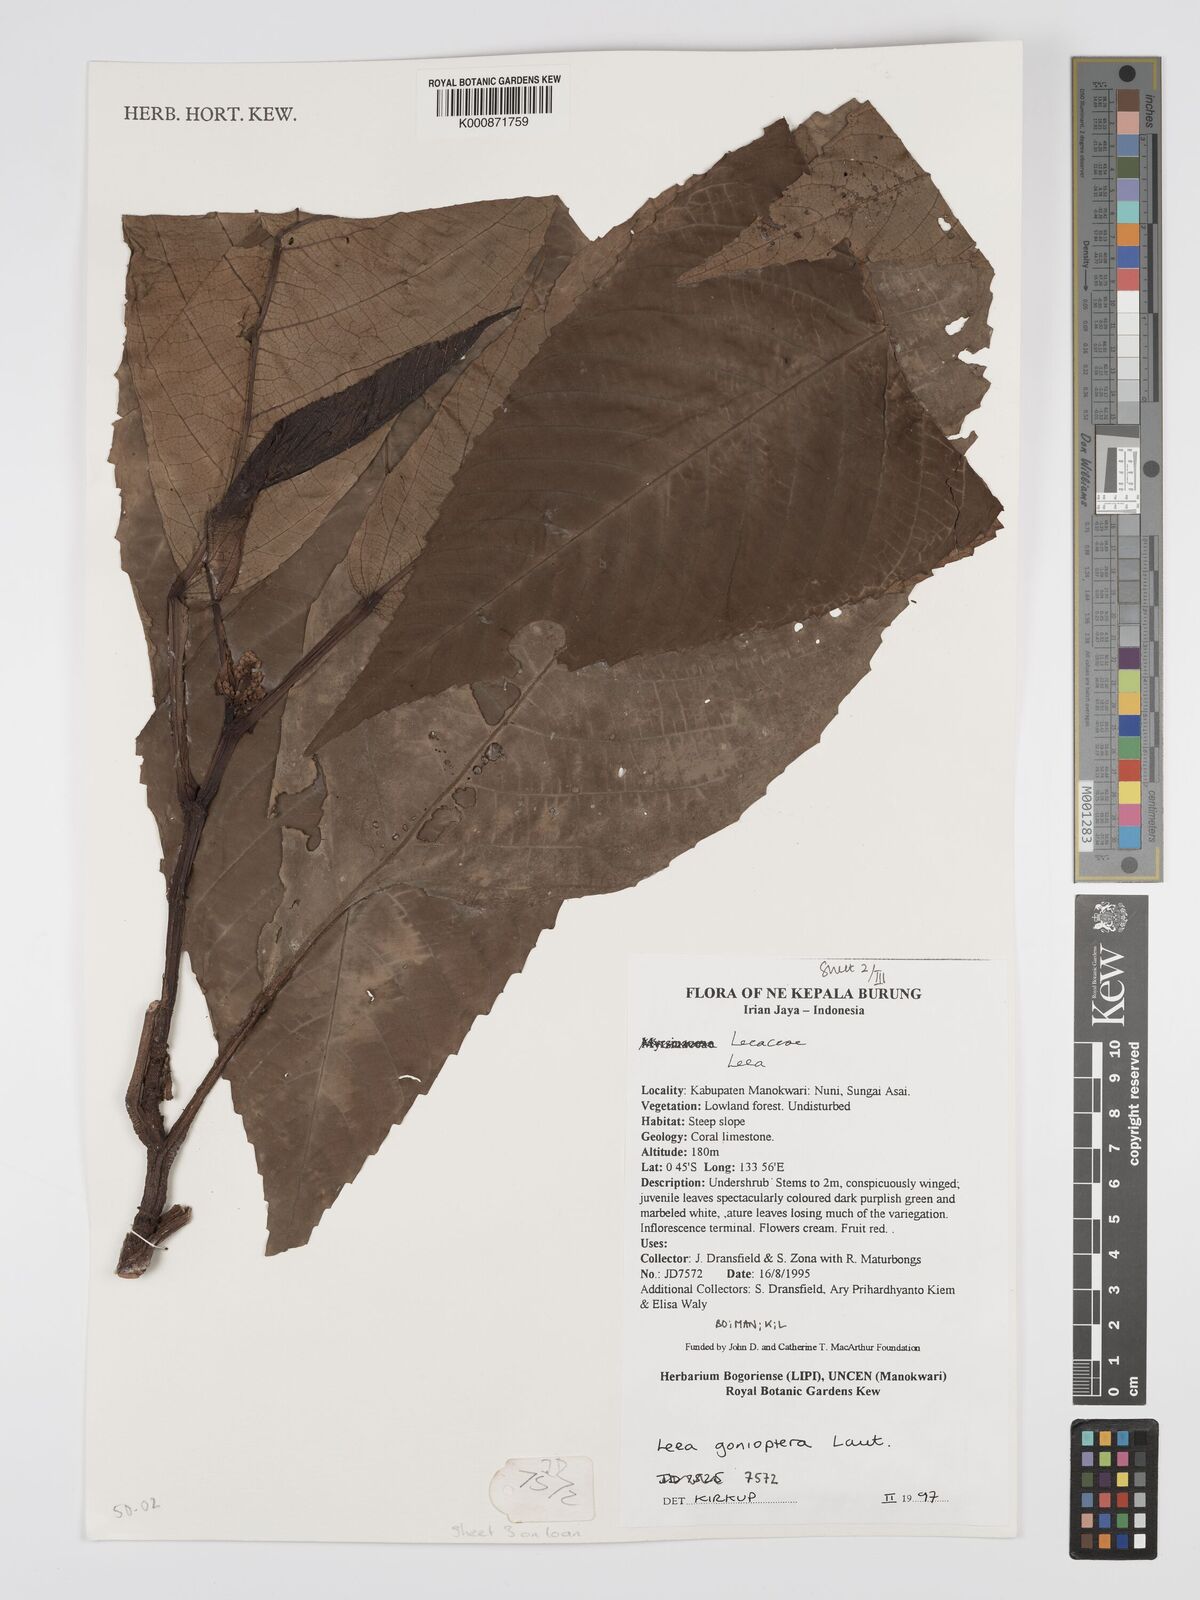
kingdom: Plantae
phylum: Tracheophyta
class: Magnoliopsida
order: Vitales
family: Vitaceae
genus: Leea
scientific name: Leea gonioptera
